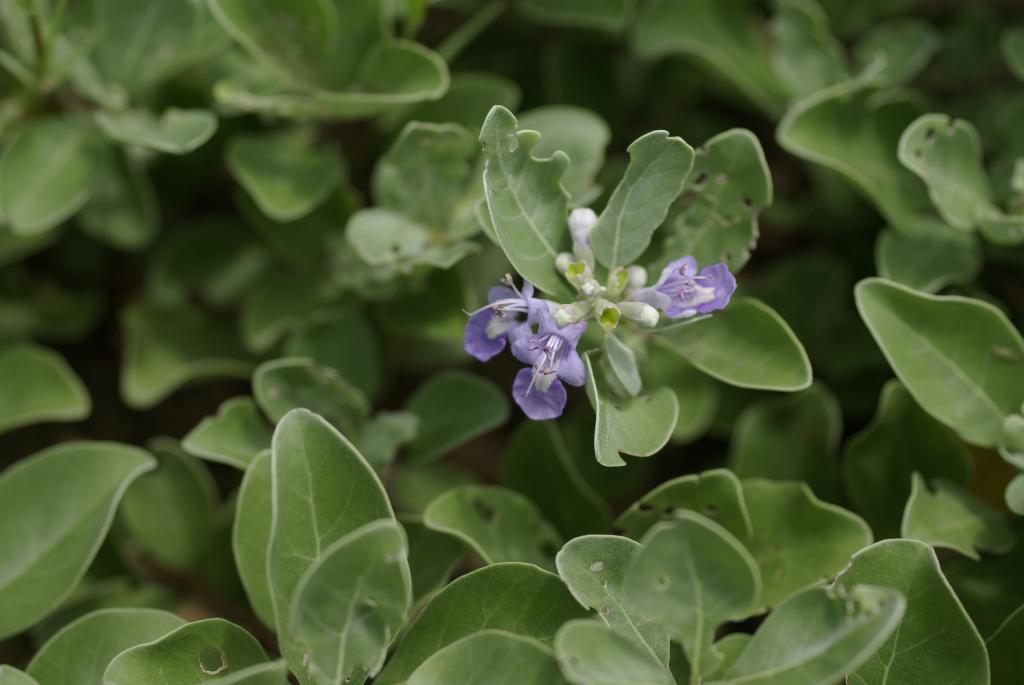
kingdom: Plantae
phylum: Tracheophyta
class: Magnoliopsida
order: Lamiales
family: Lamiaceae
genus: Vitex
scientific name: Vitex rotundifolia
